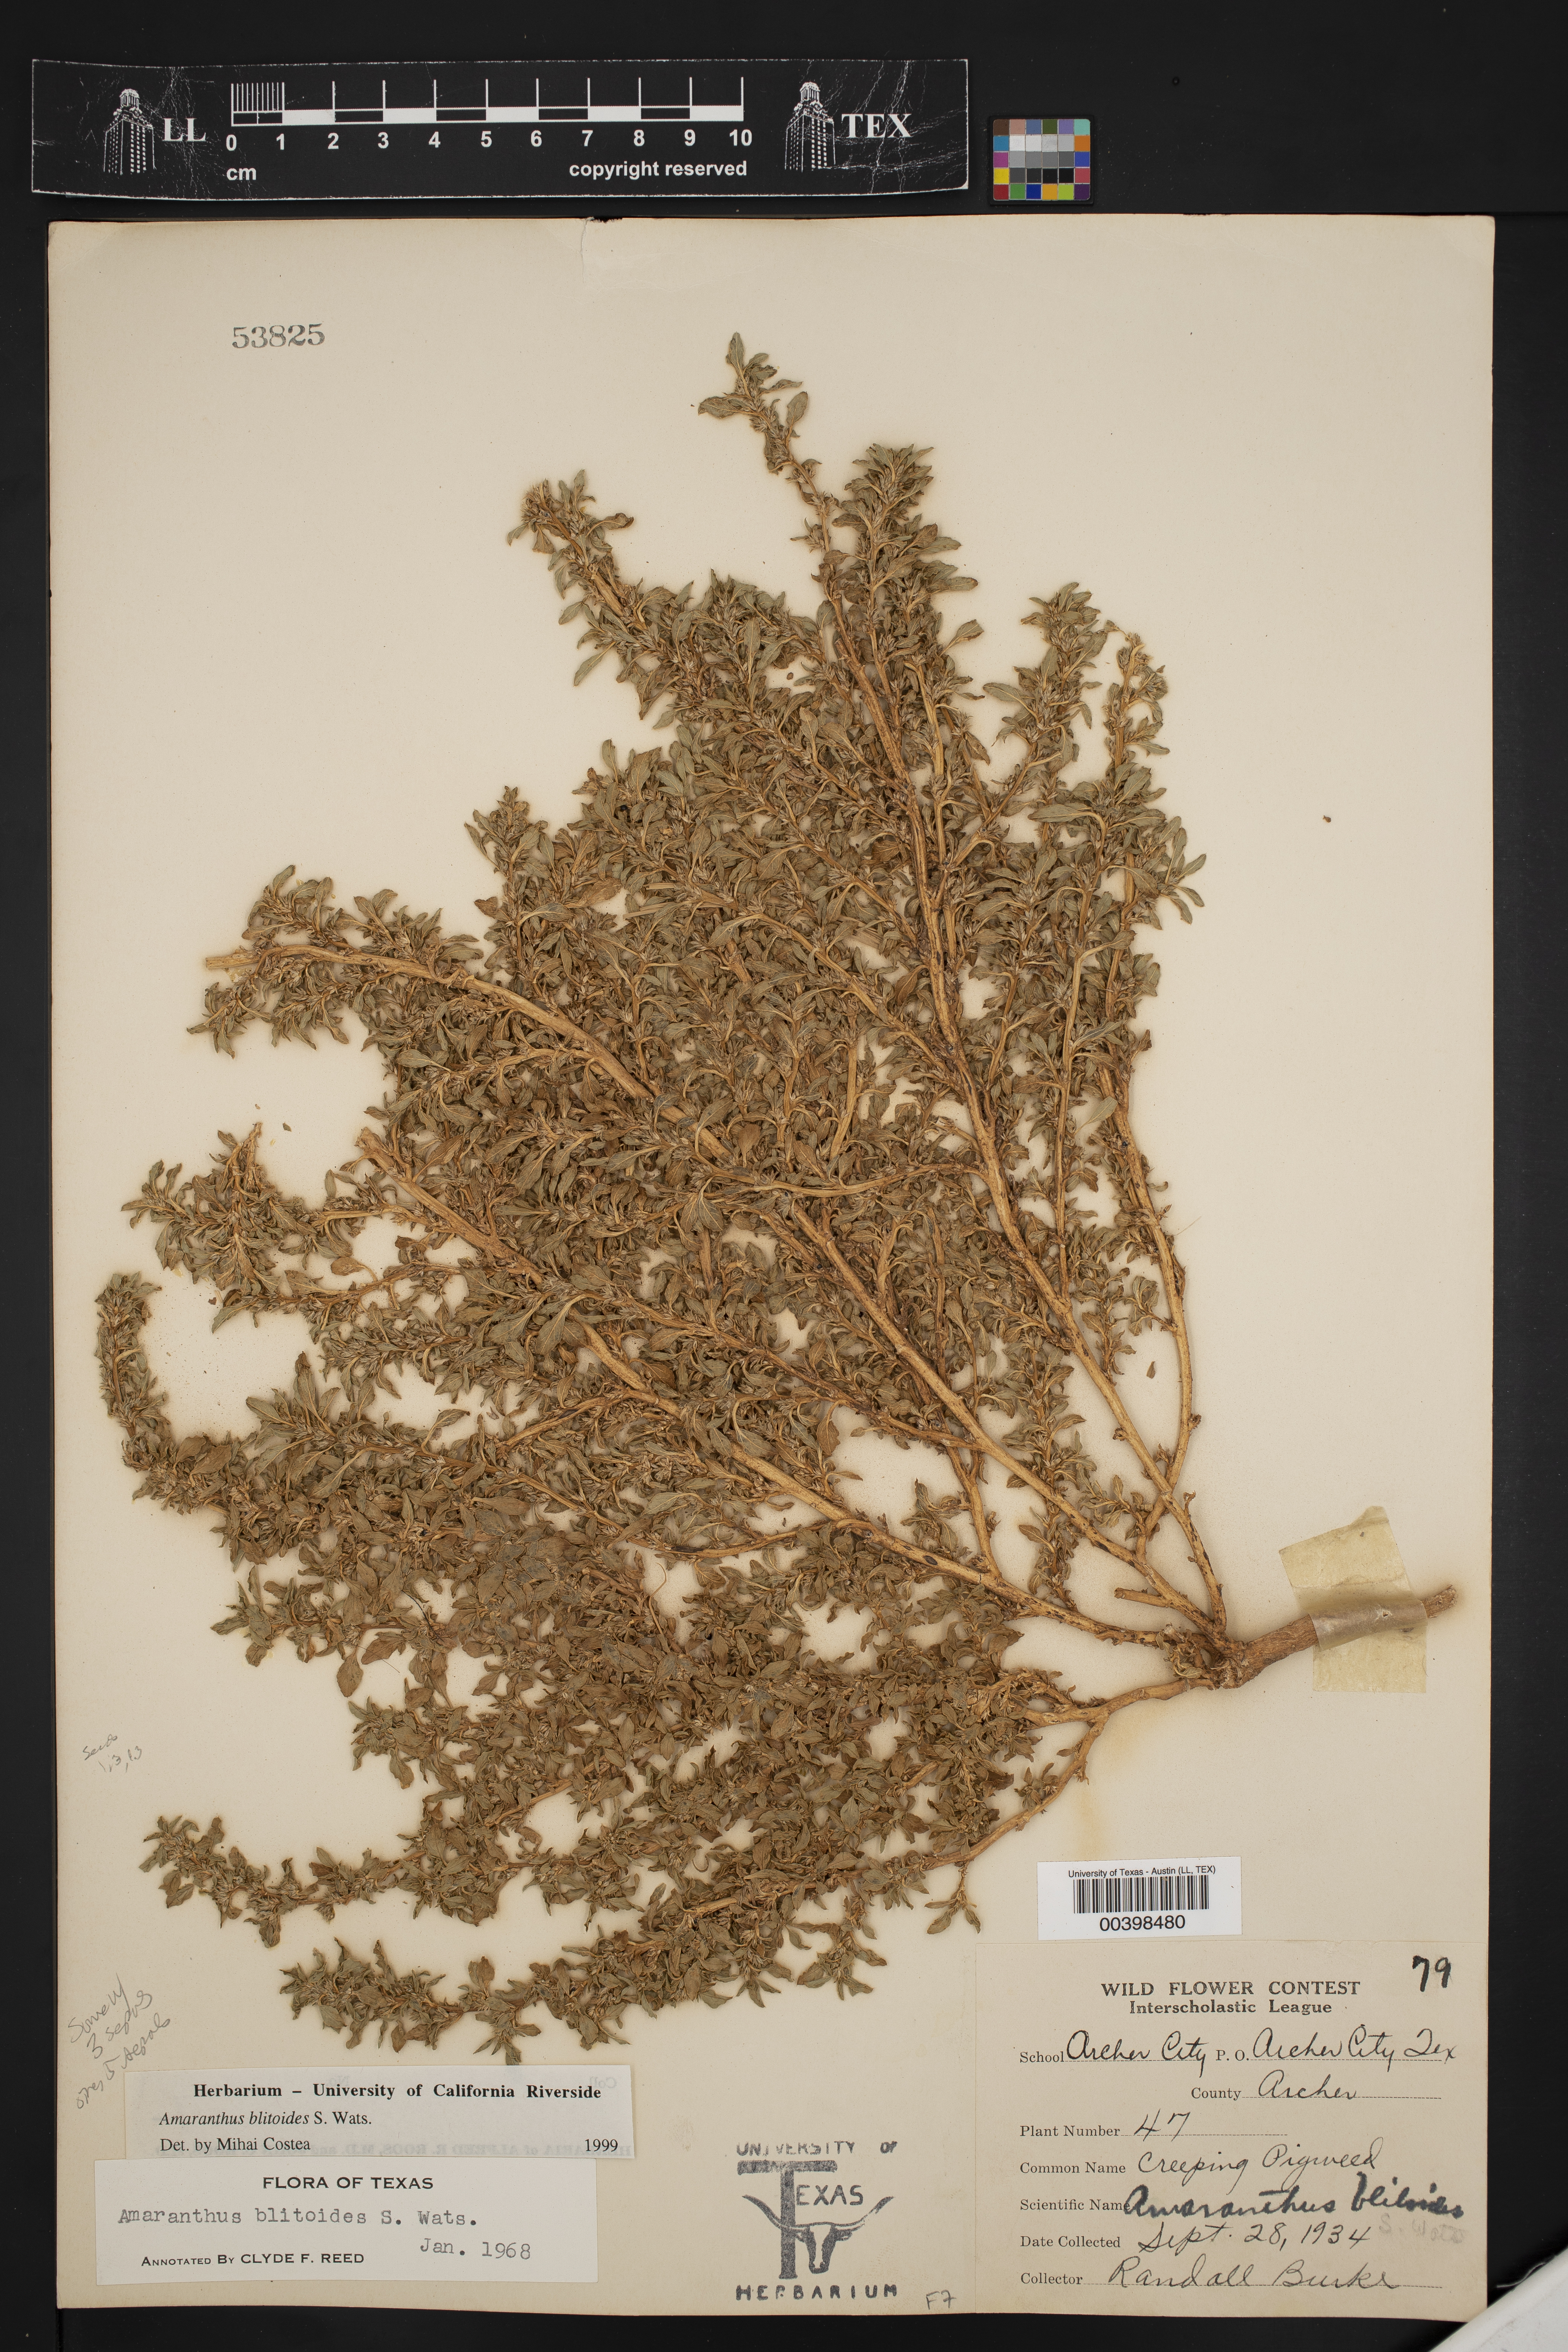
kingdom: Plantae
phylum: Tracheophyta
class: Magnoliopsida
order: Caryophyllales
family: Amaranthaceae
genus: Amaranthus
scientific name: Amaranthus blitoides
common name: Prostrate pigweed
